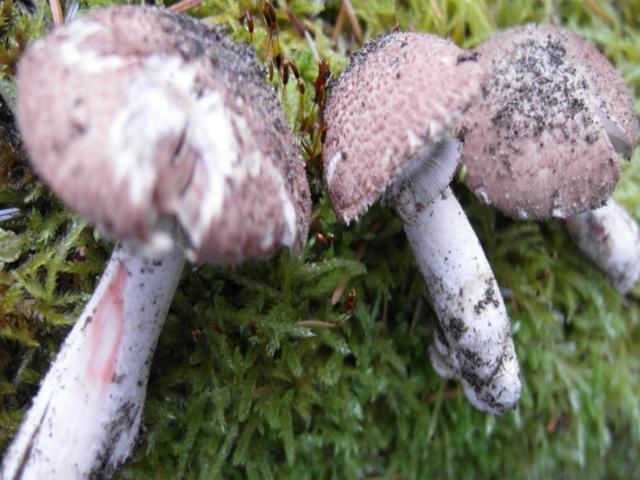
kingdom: Fungi
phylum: Basidiomycota
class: Agaricomycetes
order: Agaricales
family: Agaricaceae
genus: Agaricus
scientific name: Agaricus sylvaticus
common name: lille blod-champignon
